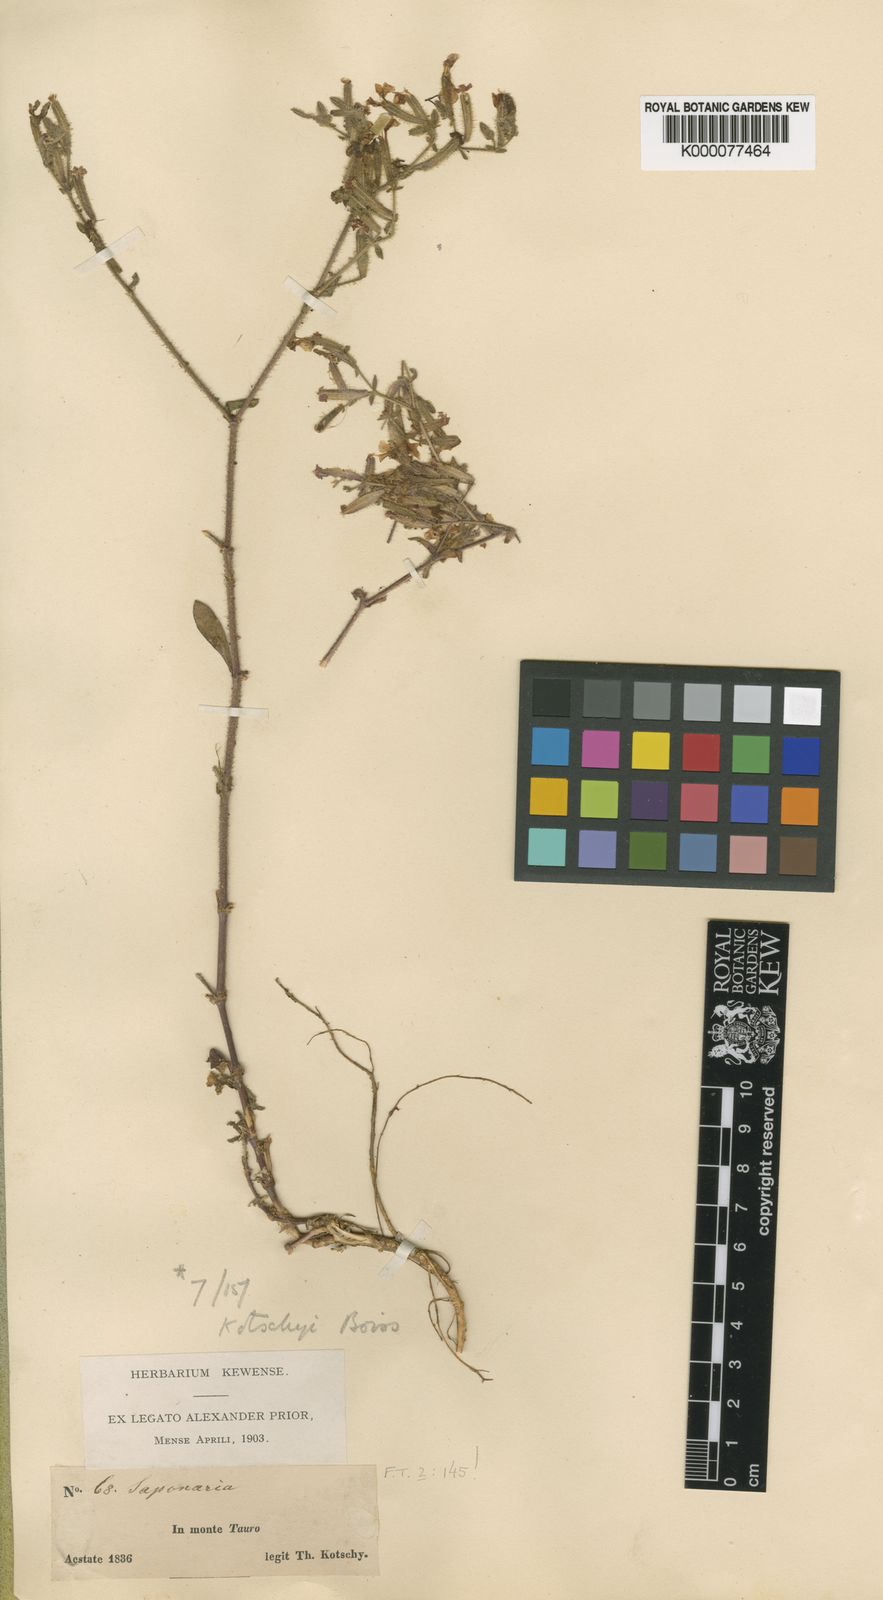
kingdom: Plantae
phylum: Tracheophyta
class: Magnoliopsida
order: Caryophyllales
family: Caryophyllaceae
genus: Saponaria
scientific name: Saponaria kotschyi
